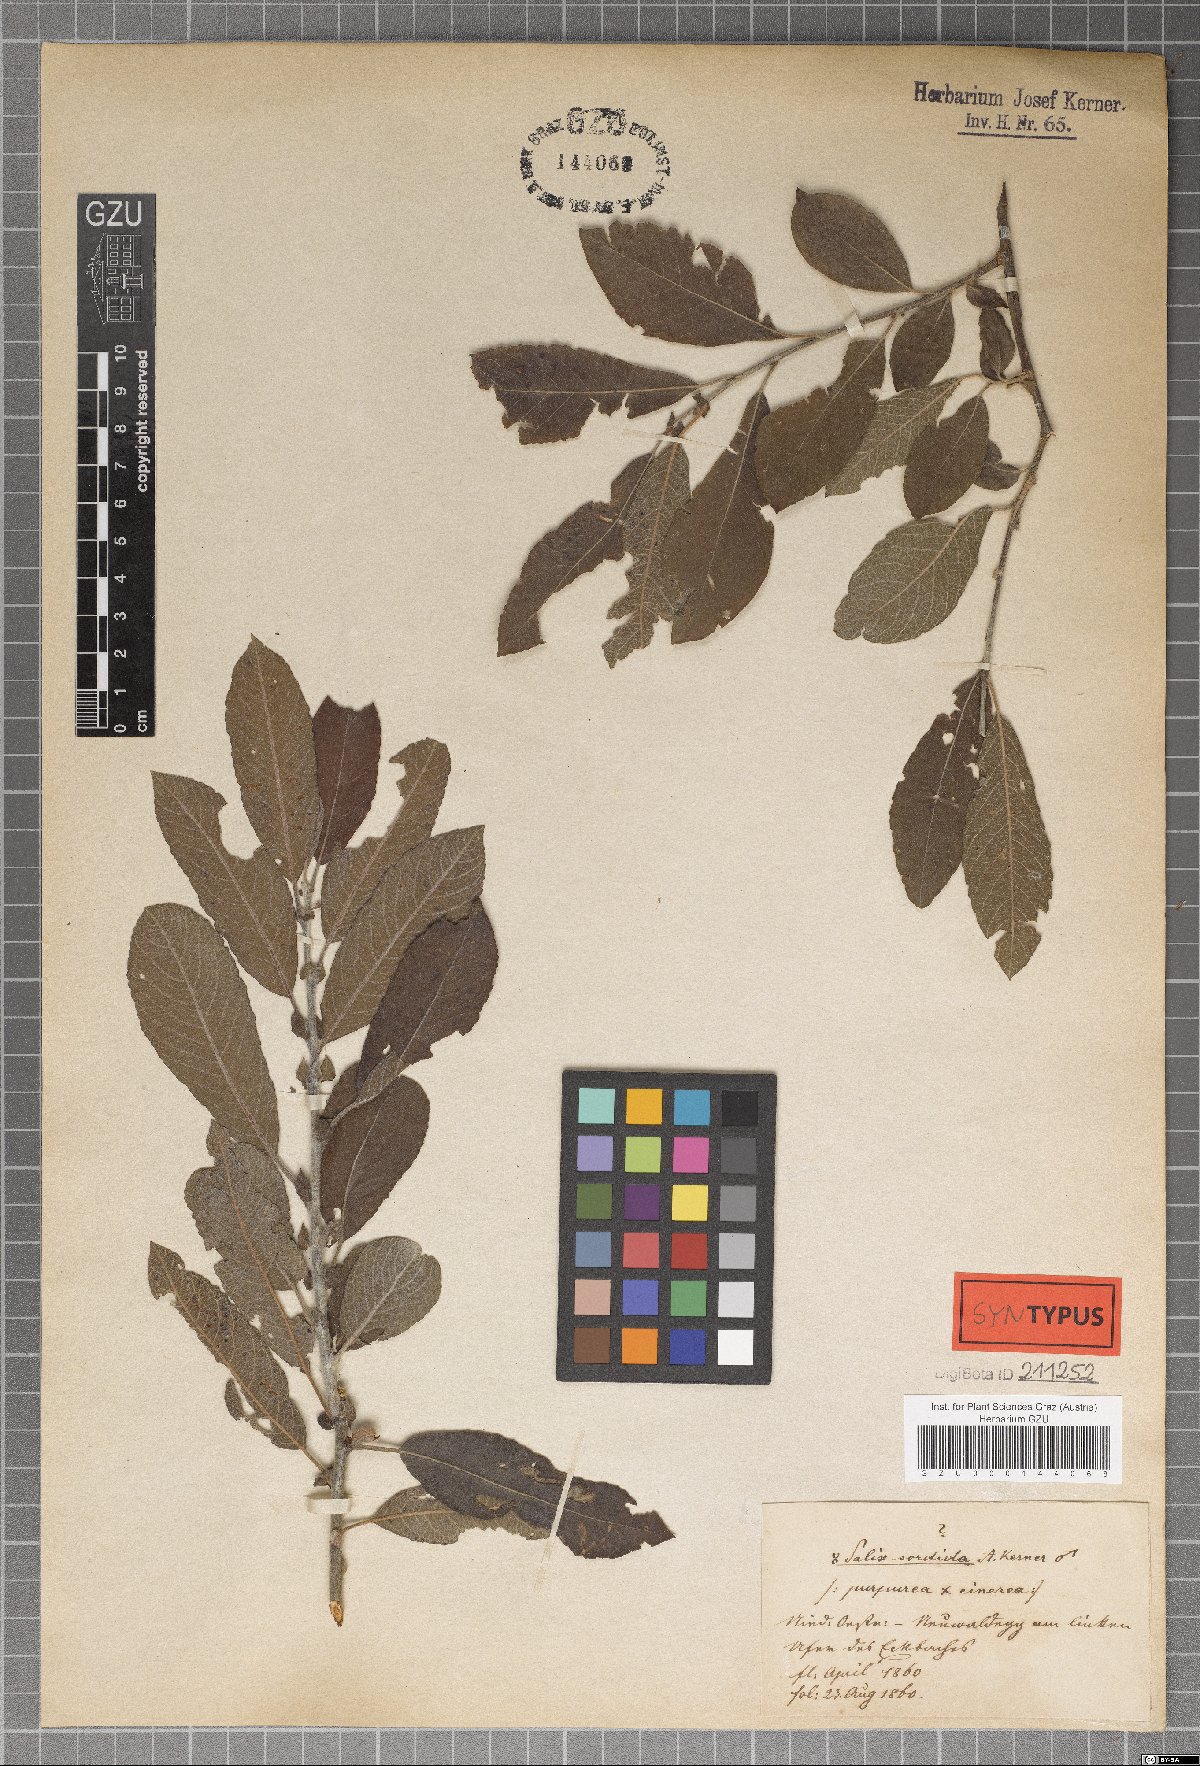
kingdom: Plantae
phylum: Tracheophyta
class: Magnoliopsida
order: Malpighiales
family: Salicaceae
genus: Salix
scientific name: Salix sordida
